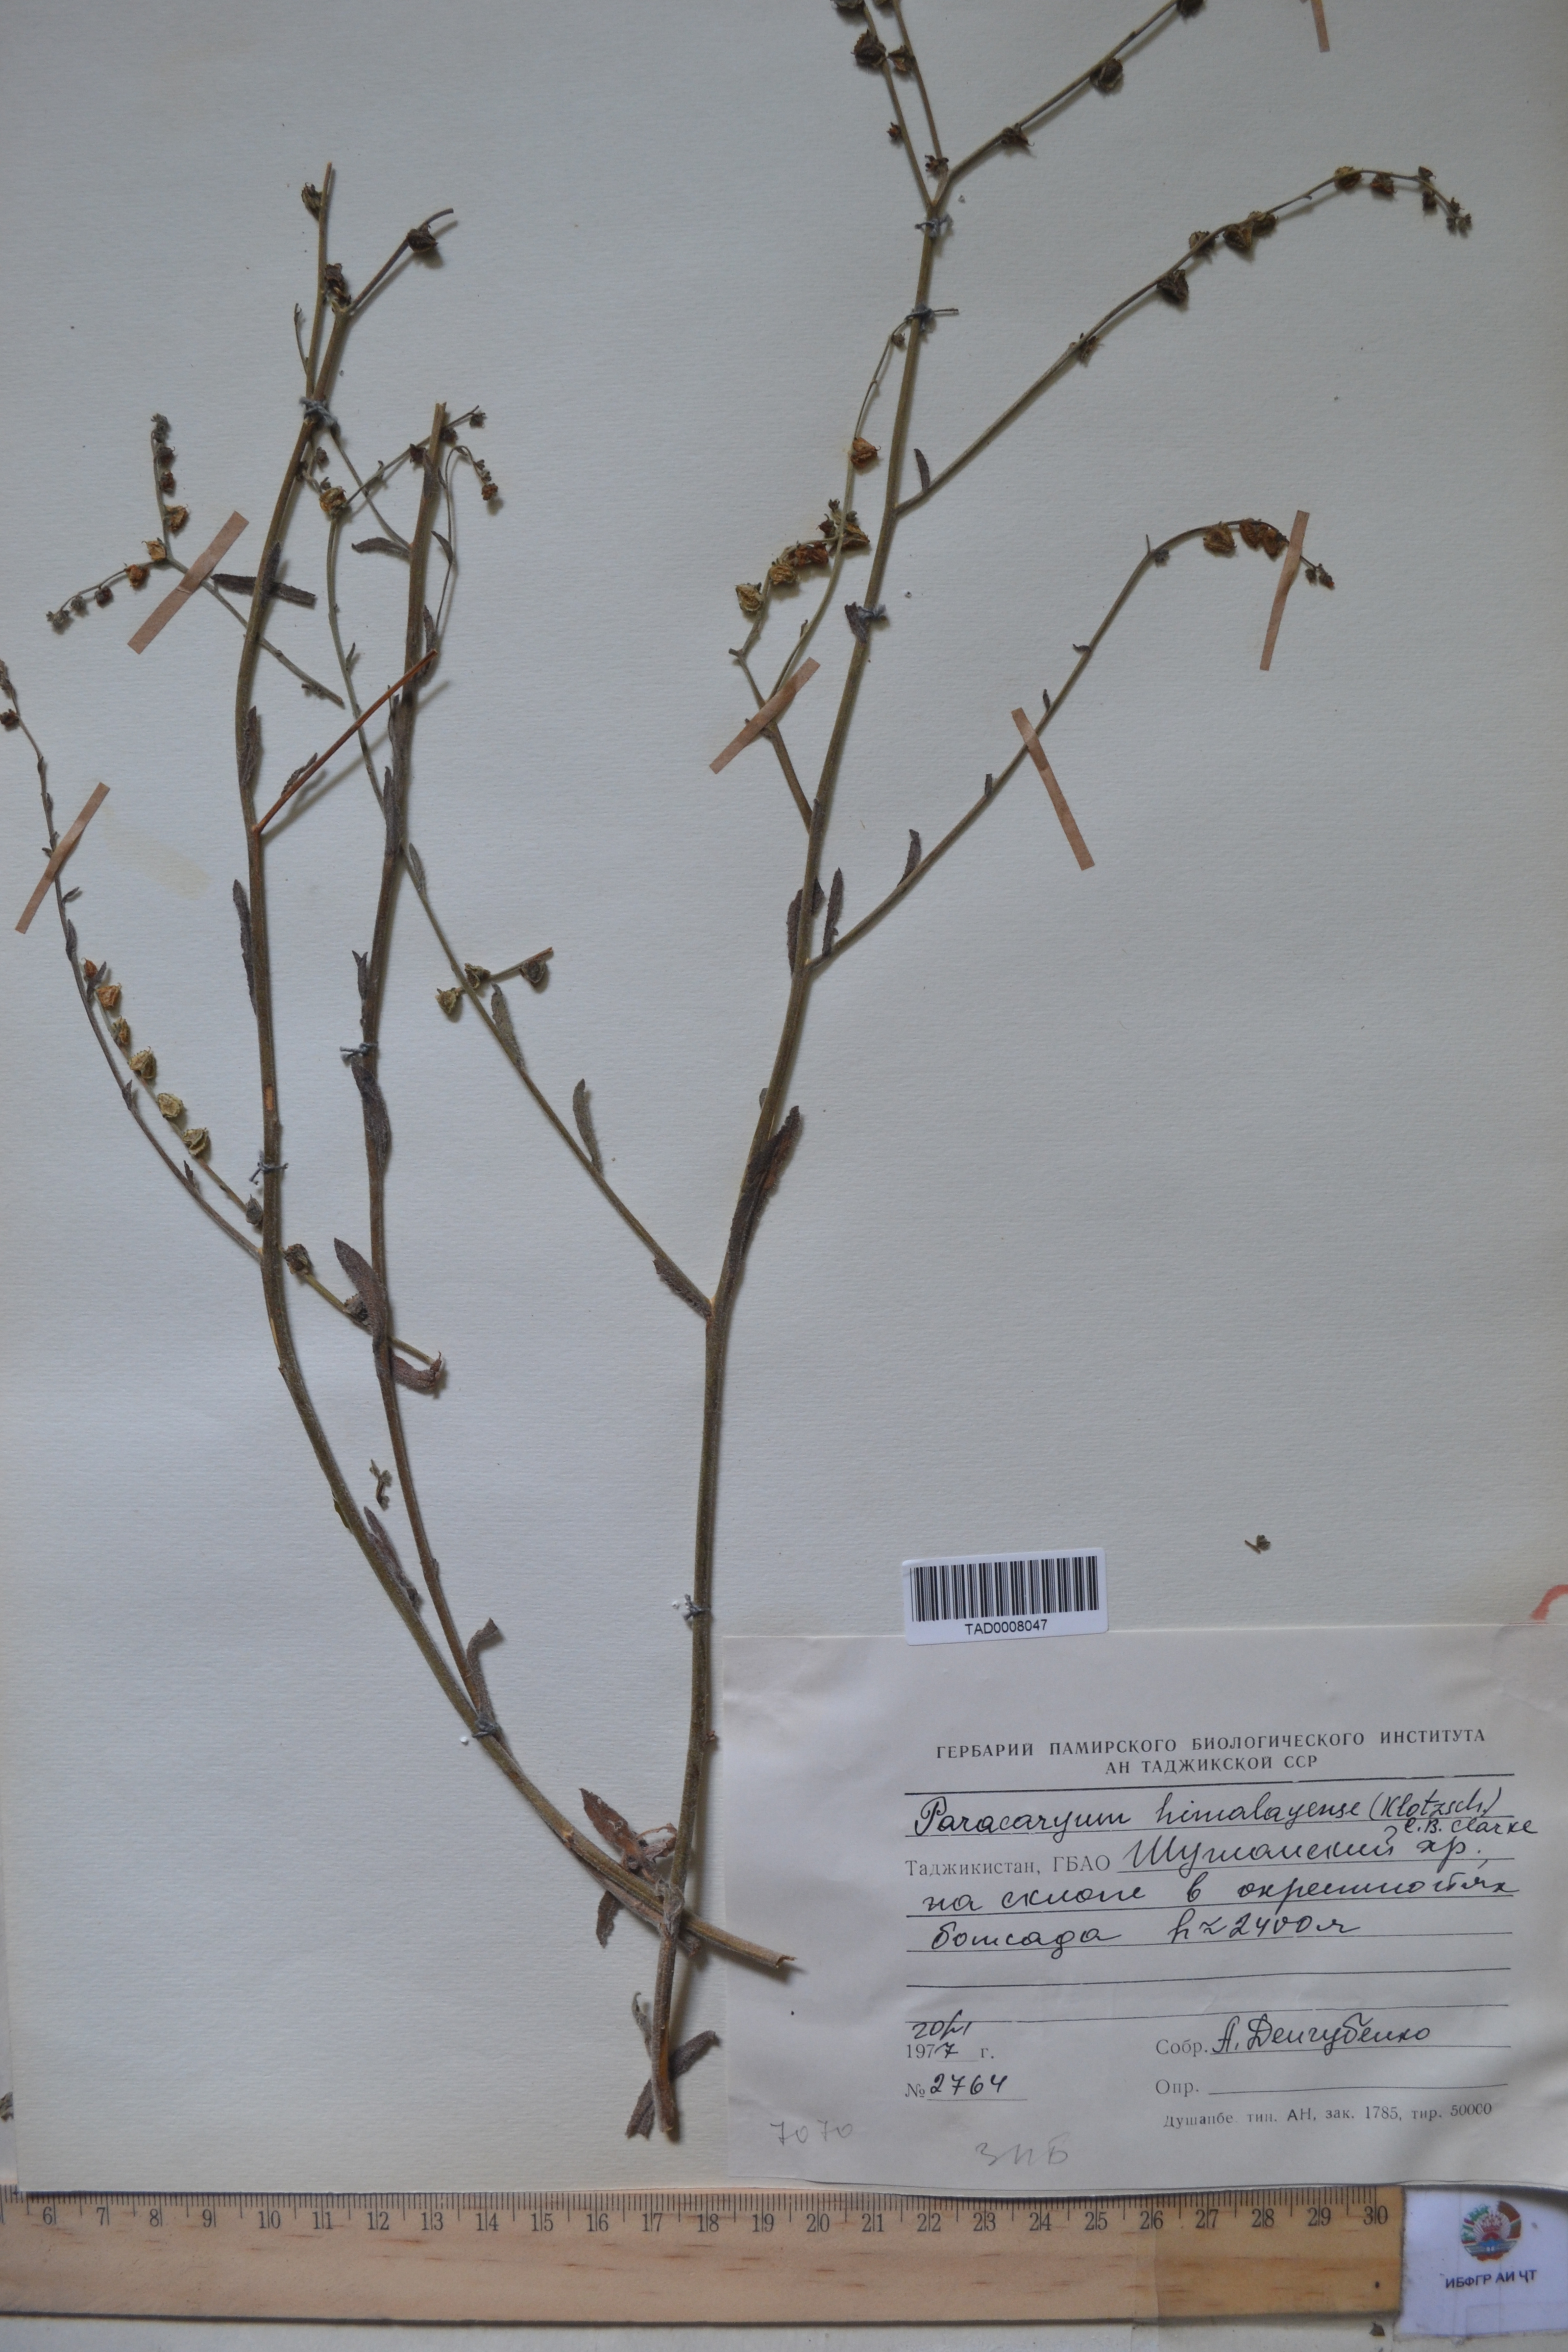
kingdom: Plantae
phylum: Tracheophyta
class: Magnoliopsida
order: Boraginales
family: Boraginaceae
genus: Paracaryum
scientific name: Paracaryum himalayense
